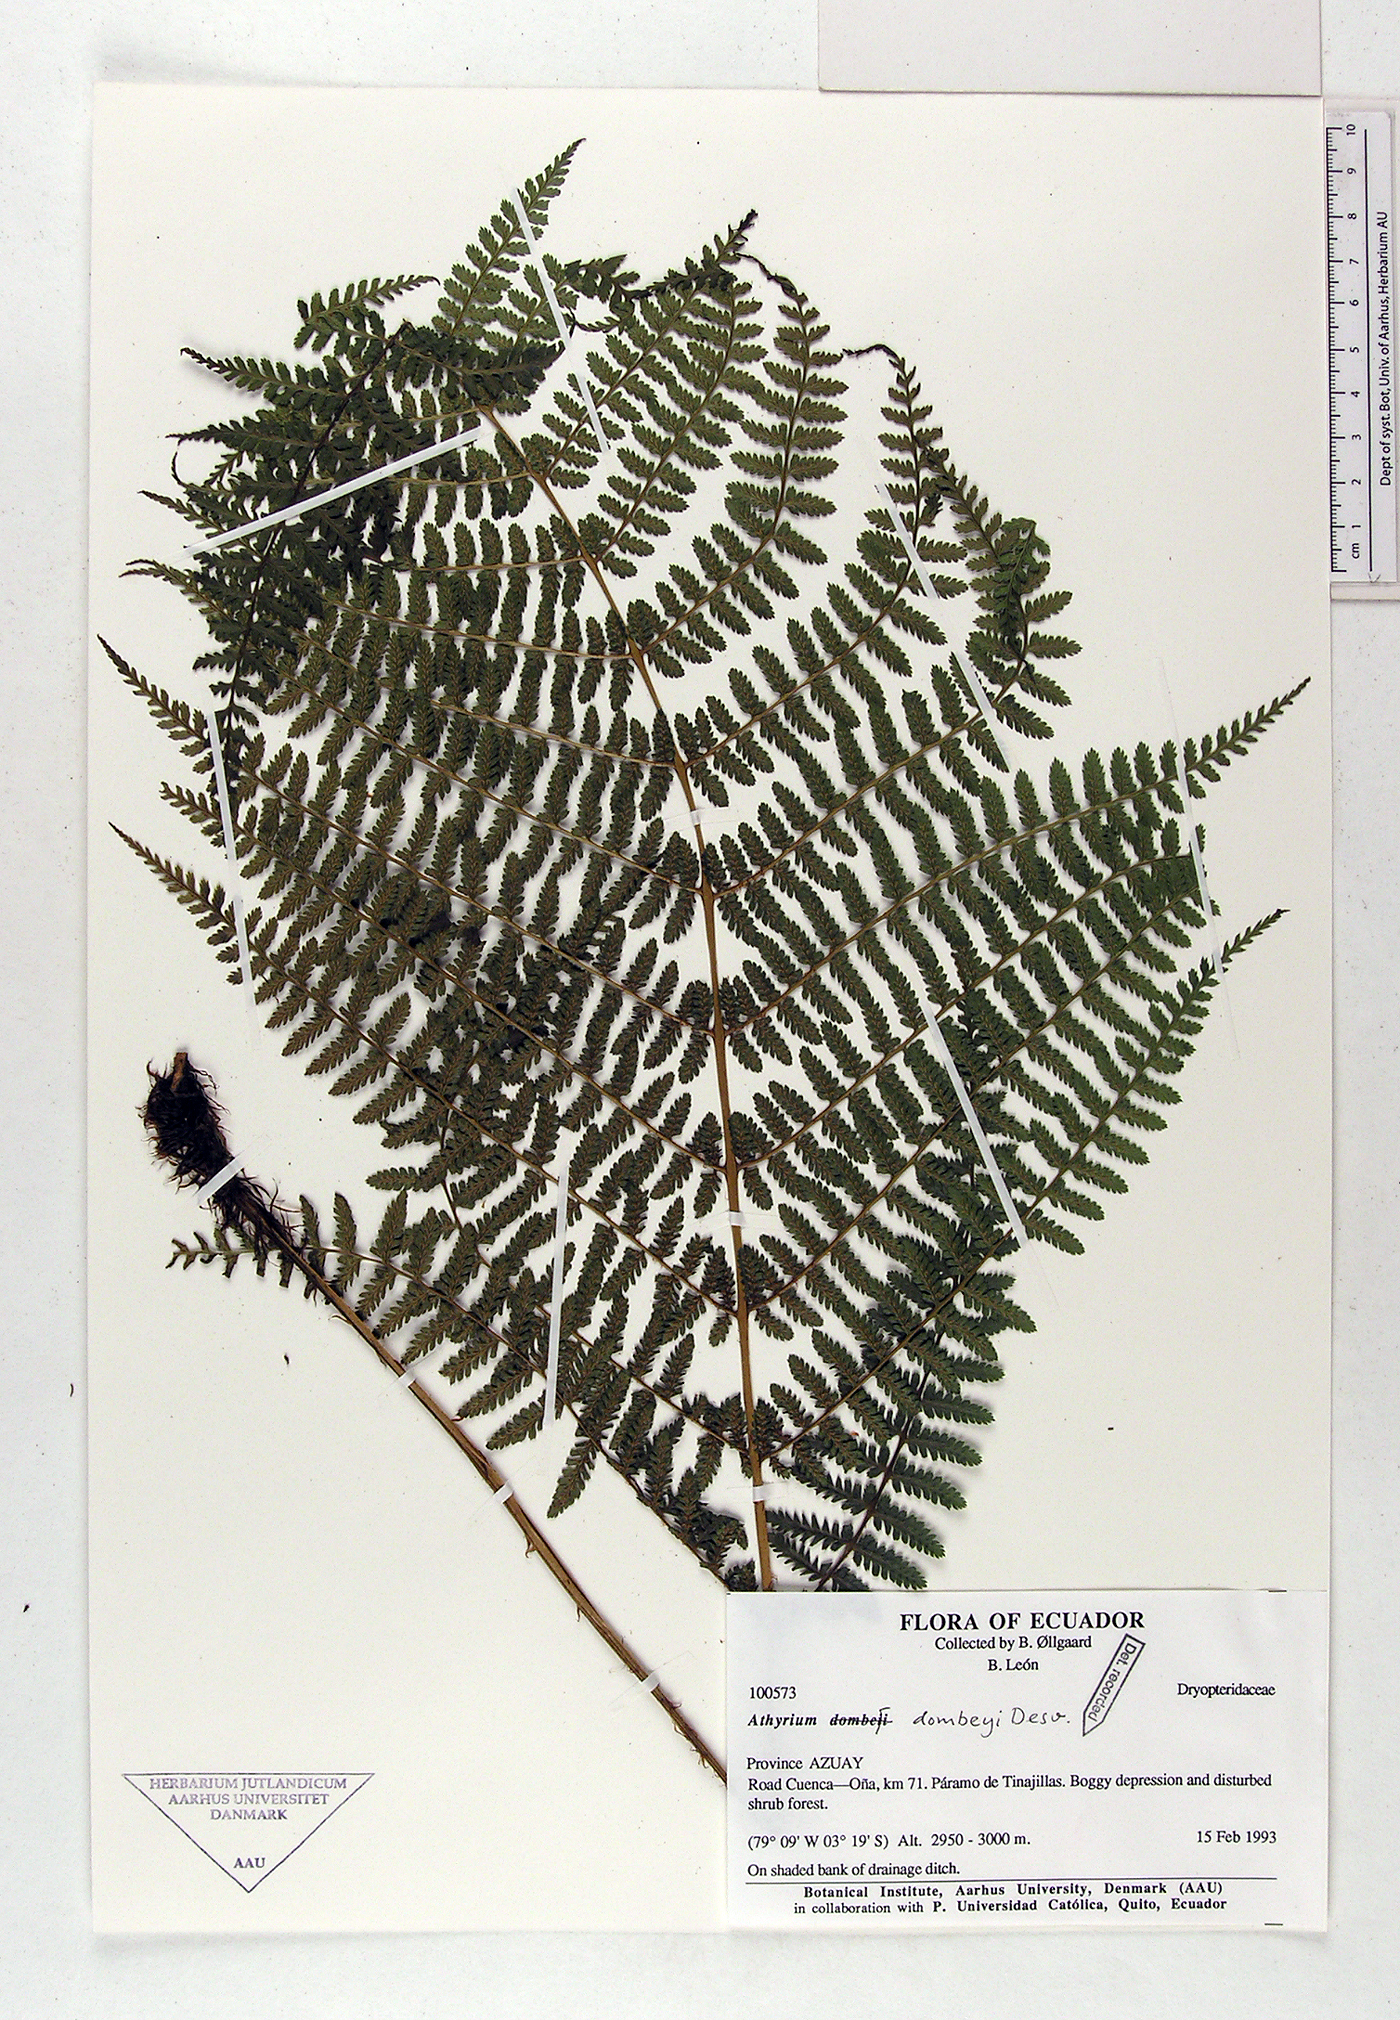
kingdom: Plantae
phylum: Tracheophyta
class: Polypodiopsida
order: Polypodiales
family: Athyriaceae
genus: Athyrium
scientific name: Athyrium dombeyi
